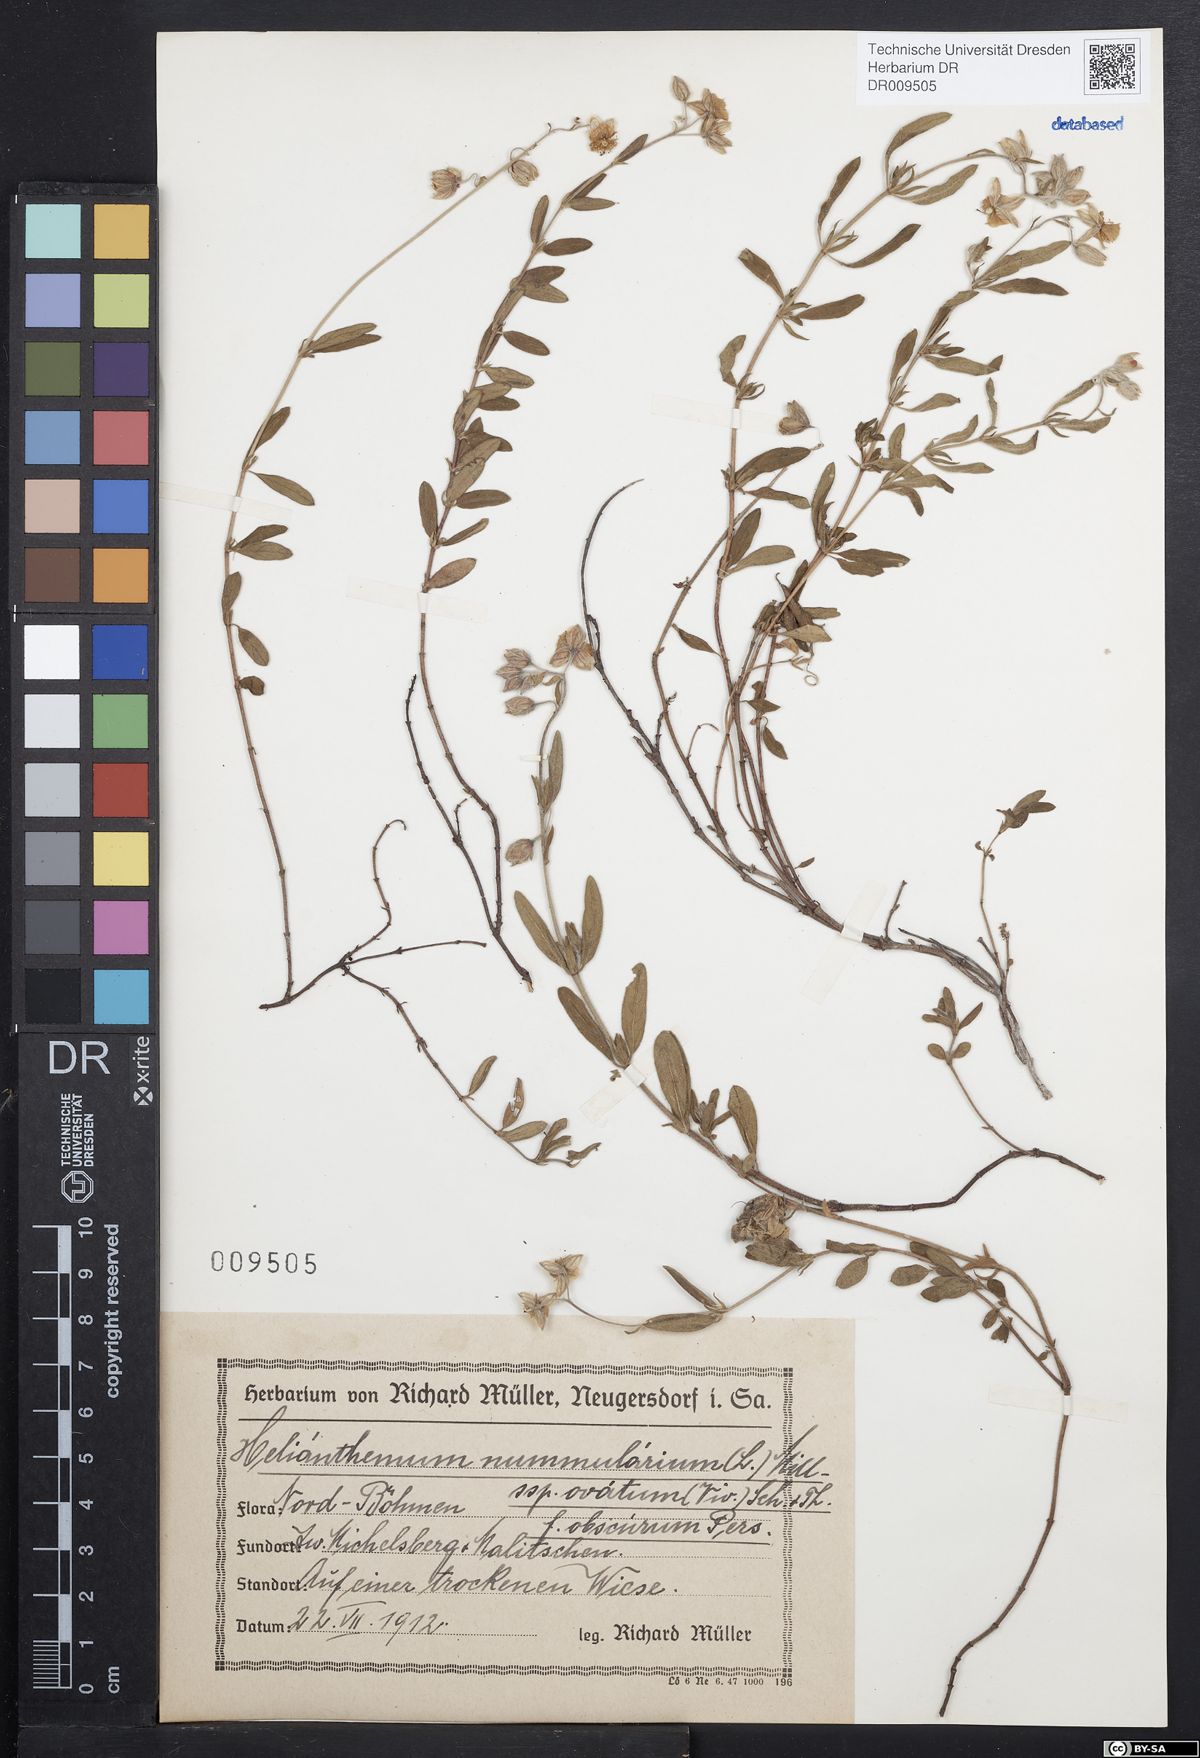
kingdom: Plantae
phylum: Tracheophyta
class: Magnoliopsida
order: Malvales
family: Cistaceae
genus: Helianthemum
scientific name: Helianthemum nummularium
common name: Common rock-rose
